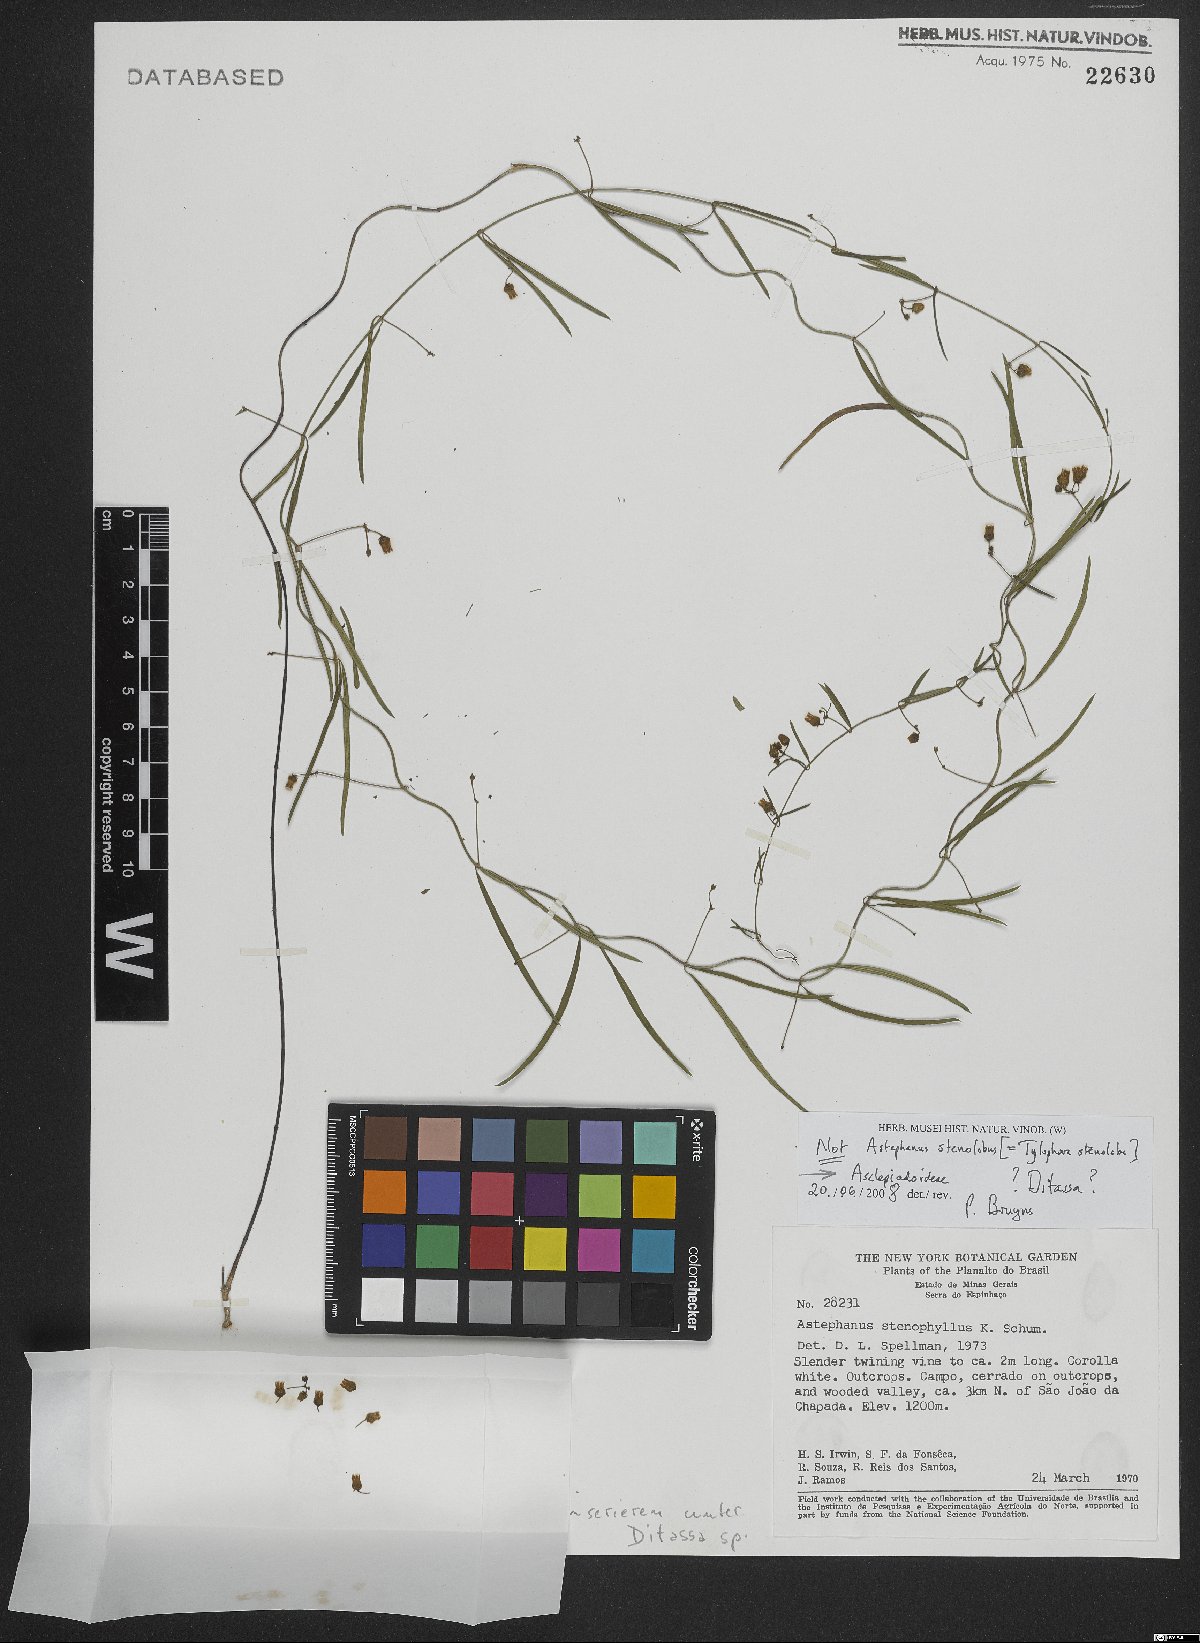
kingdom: Plantae
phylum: Tracheophyta
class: Magnoliopsida
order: Gentianales
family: Apocynaceae
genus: Ditassa
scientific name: Ditassa
